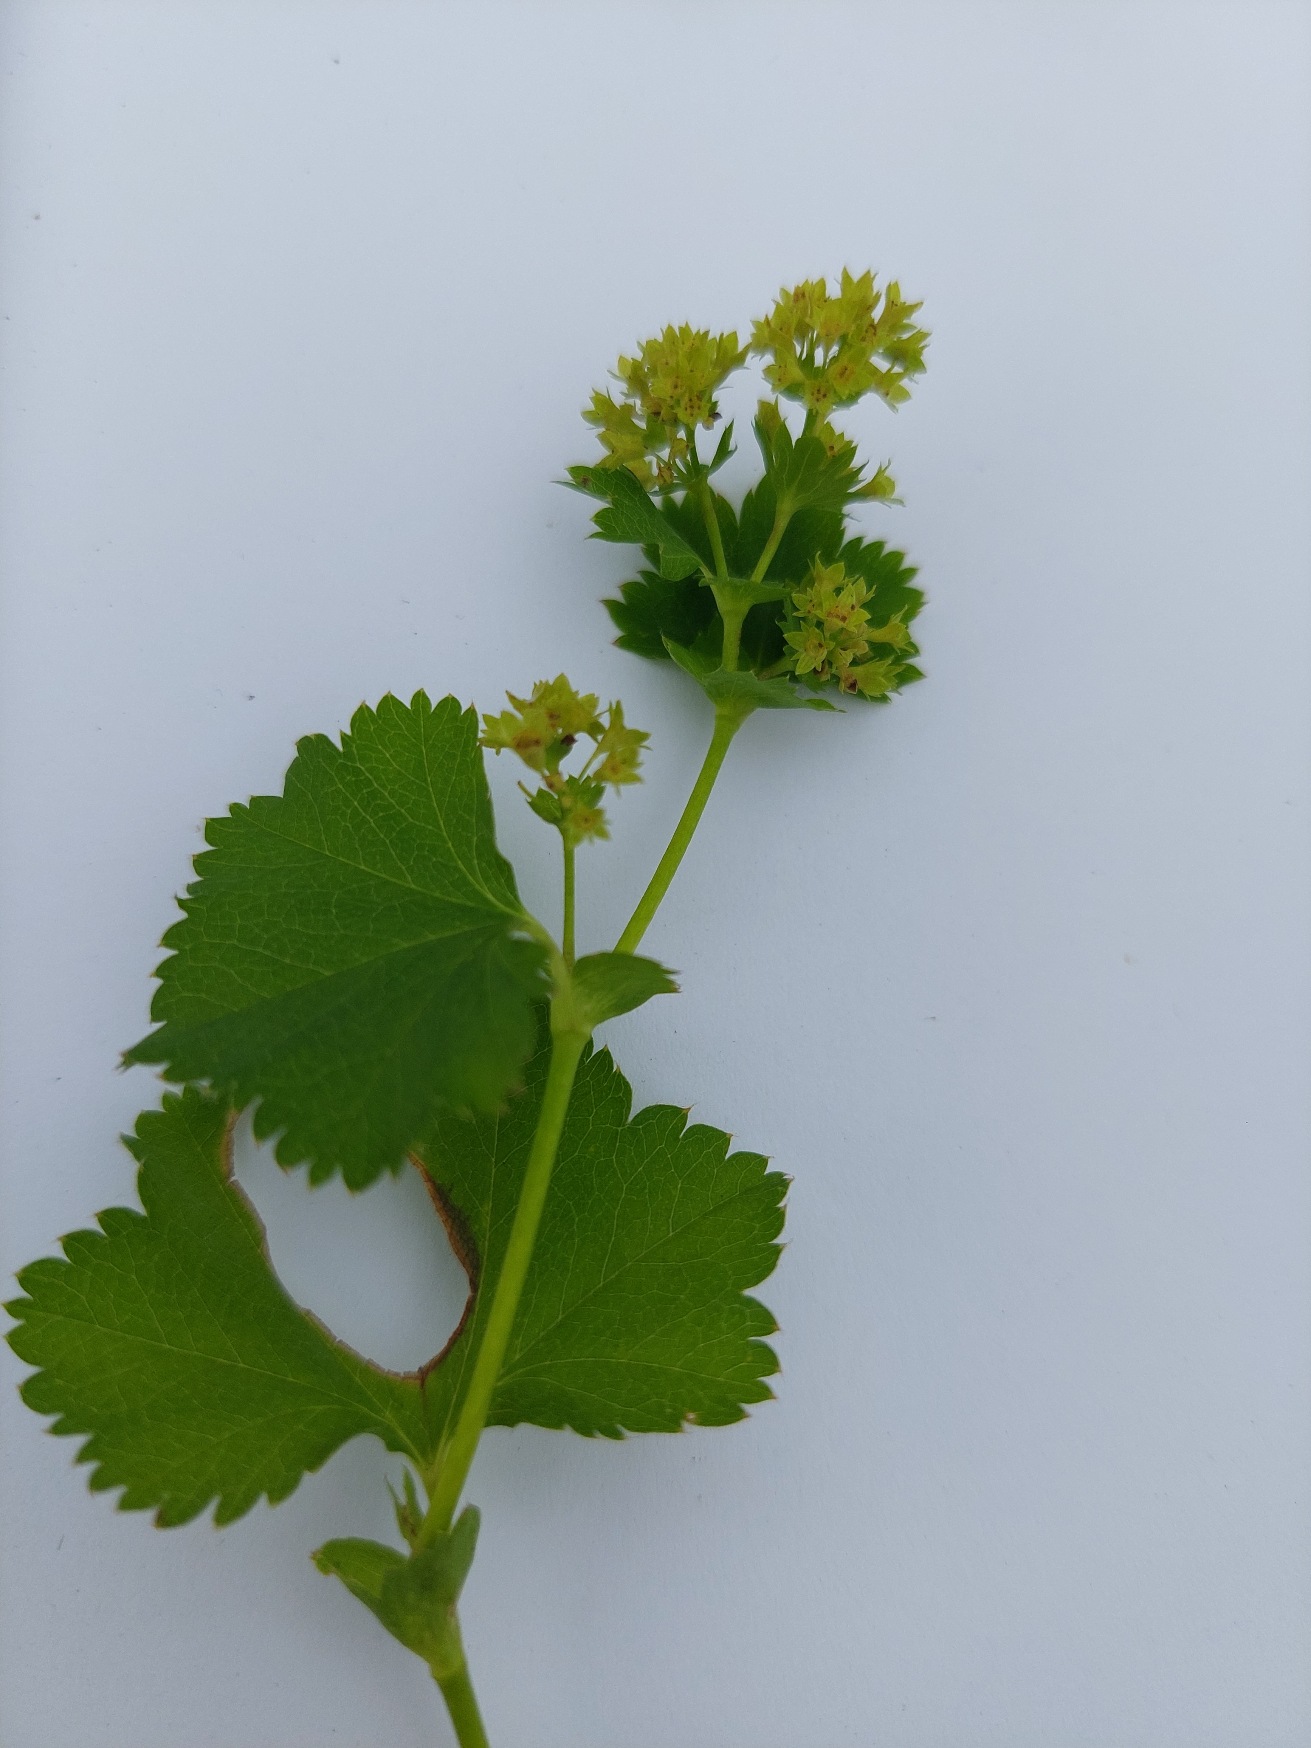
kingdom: Plantae
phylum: Tracheophyta
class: Magnoliopsida
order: Rosales
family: Rosaceae
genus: Alchemilla
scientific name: Alchemilla glabra
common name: Glat løvefod
